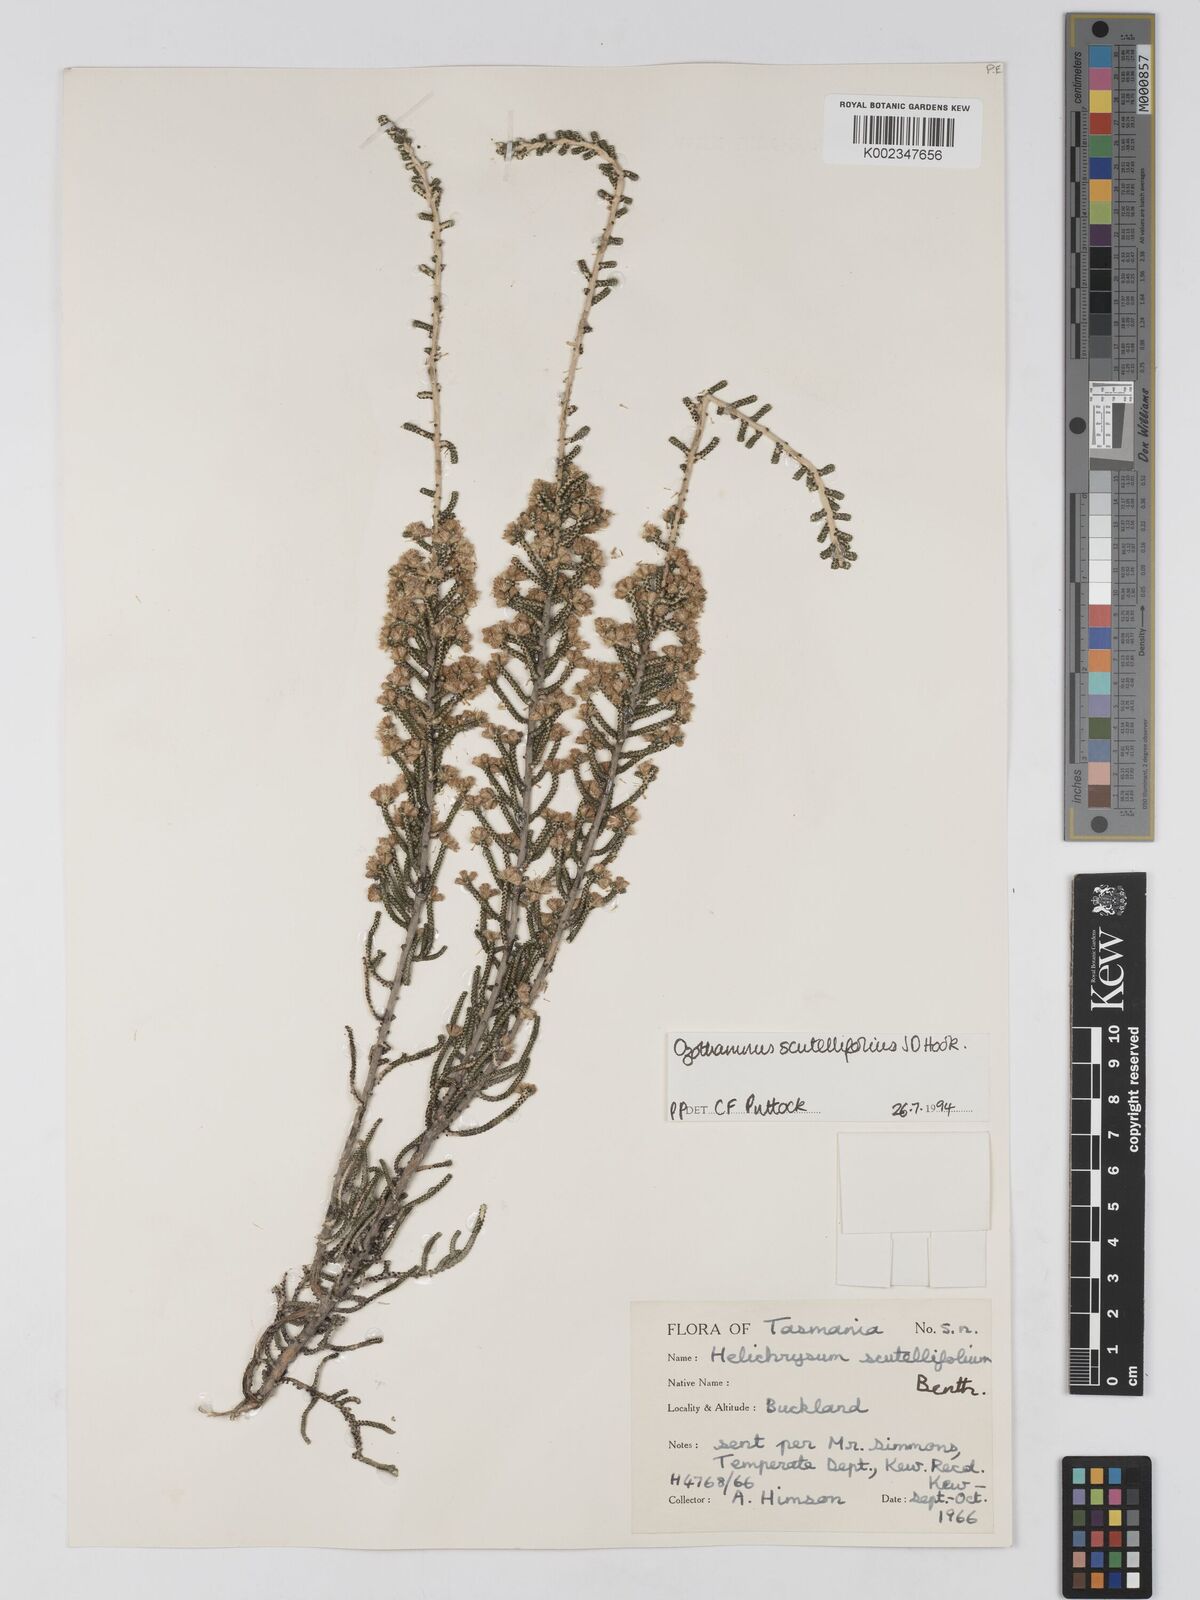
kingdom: Plantae
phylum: Tracheophyta
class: Magnoliopsida
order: Asterales
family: Asteraceae
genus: Ozothamnus
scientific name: Ozothamnus scutellifolius
